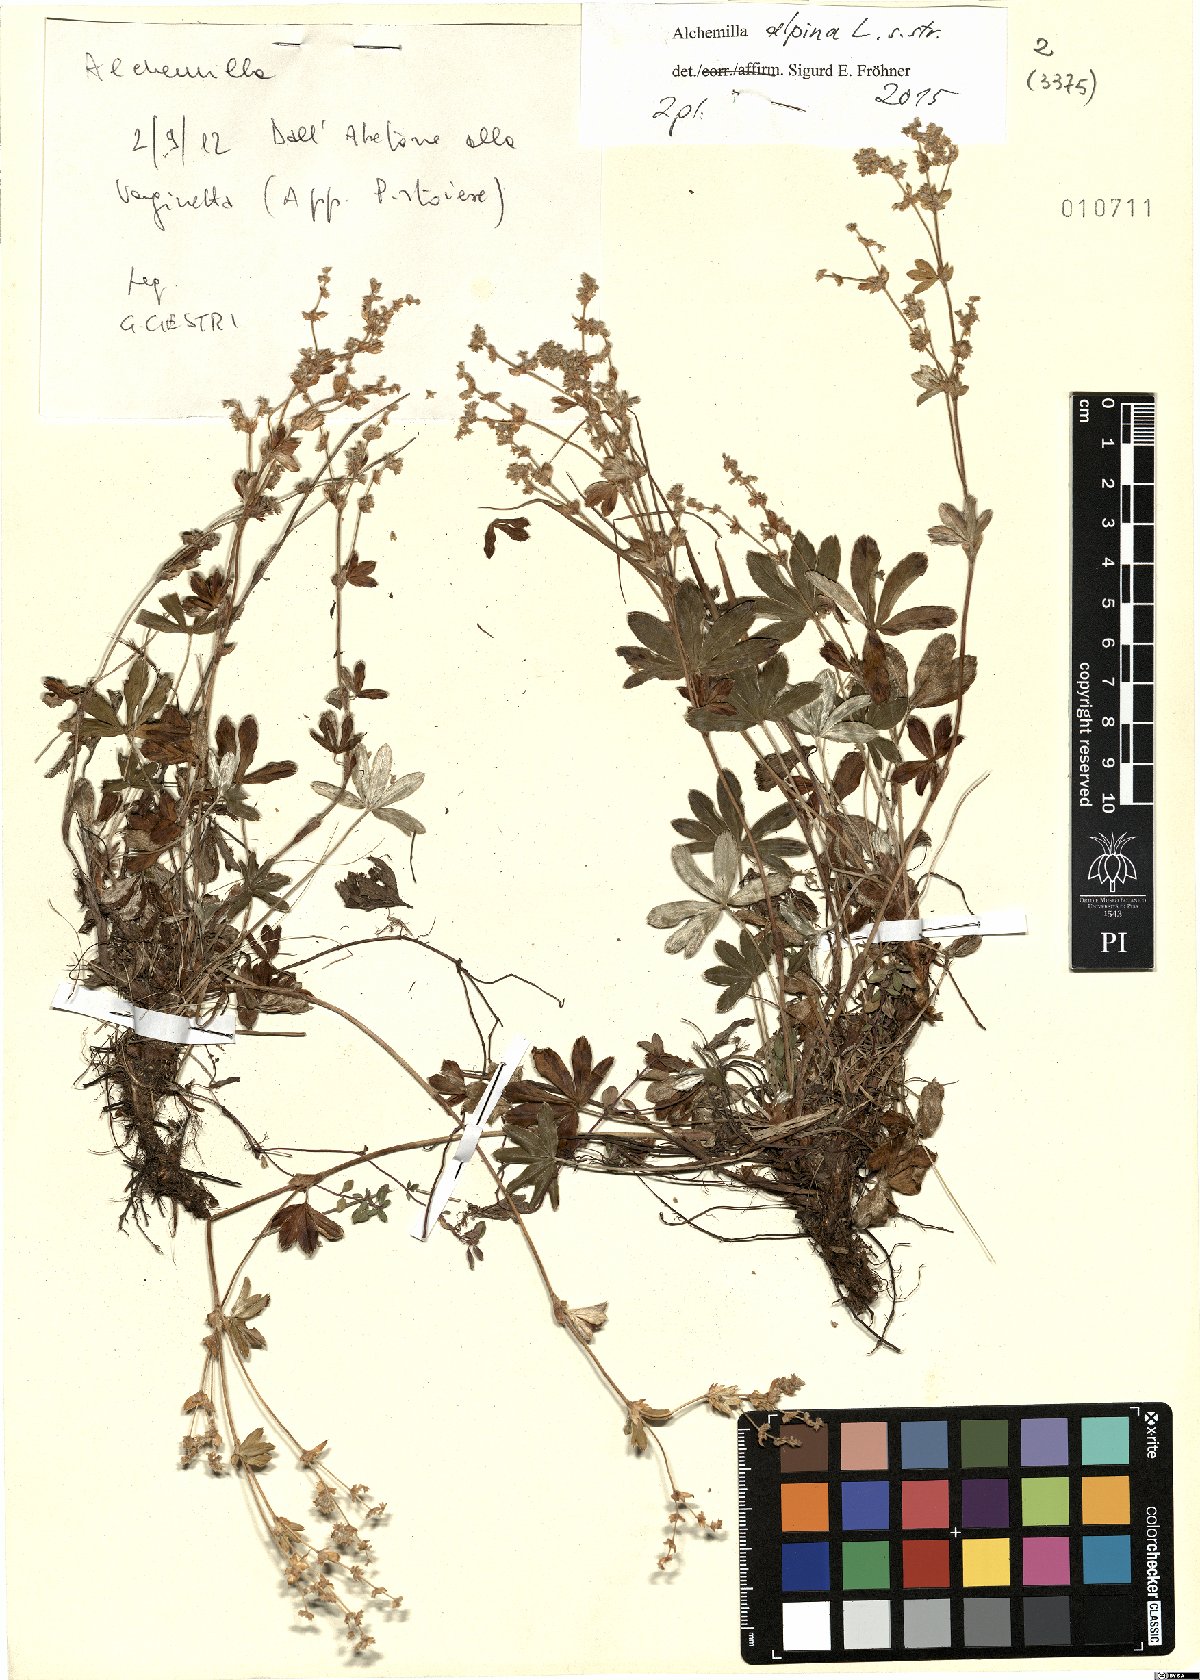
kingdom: Plantae
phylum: Tracheophyta
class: Magnoliopsida
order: Rosales
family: Rosaceae
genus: Alchemilla
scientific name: Alchemilla alpina
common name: Alpine lady's-mantle
